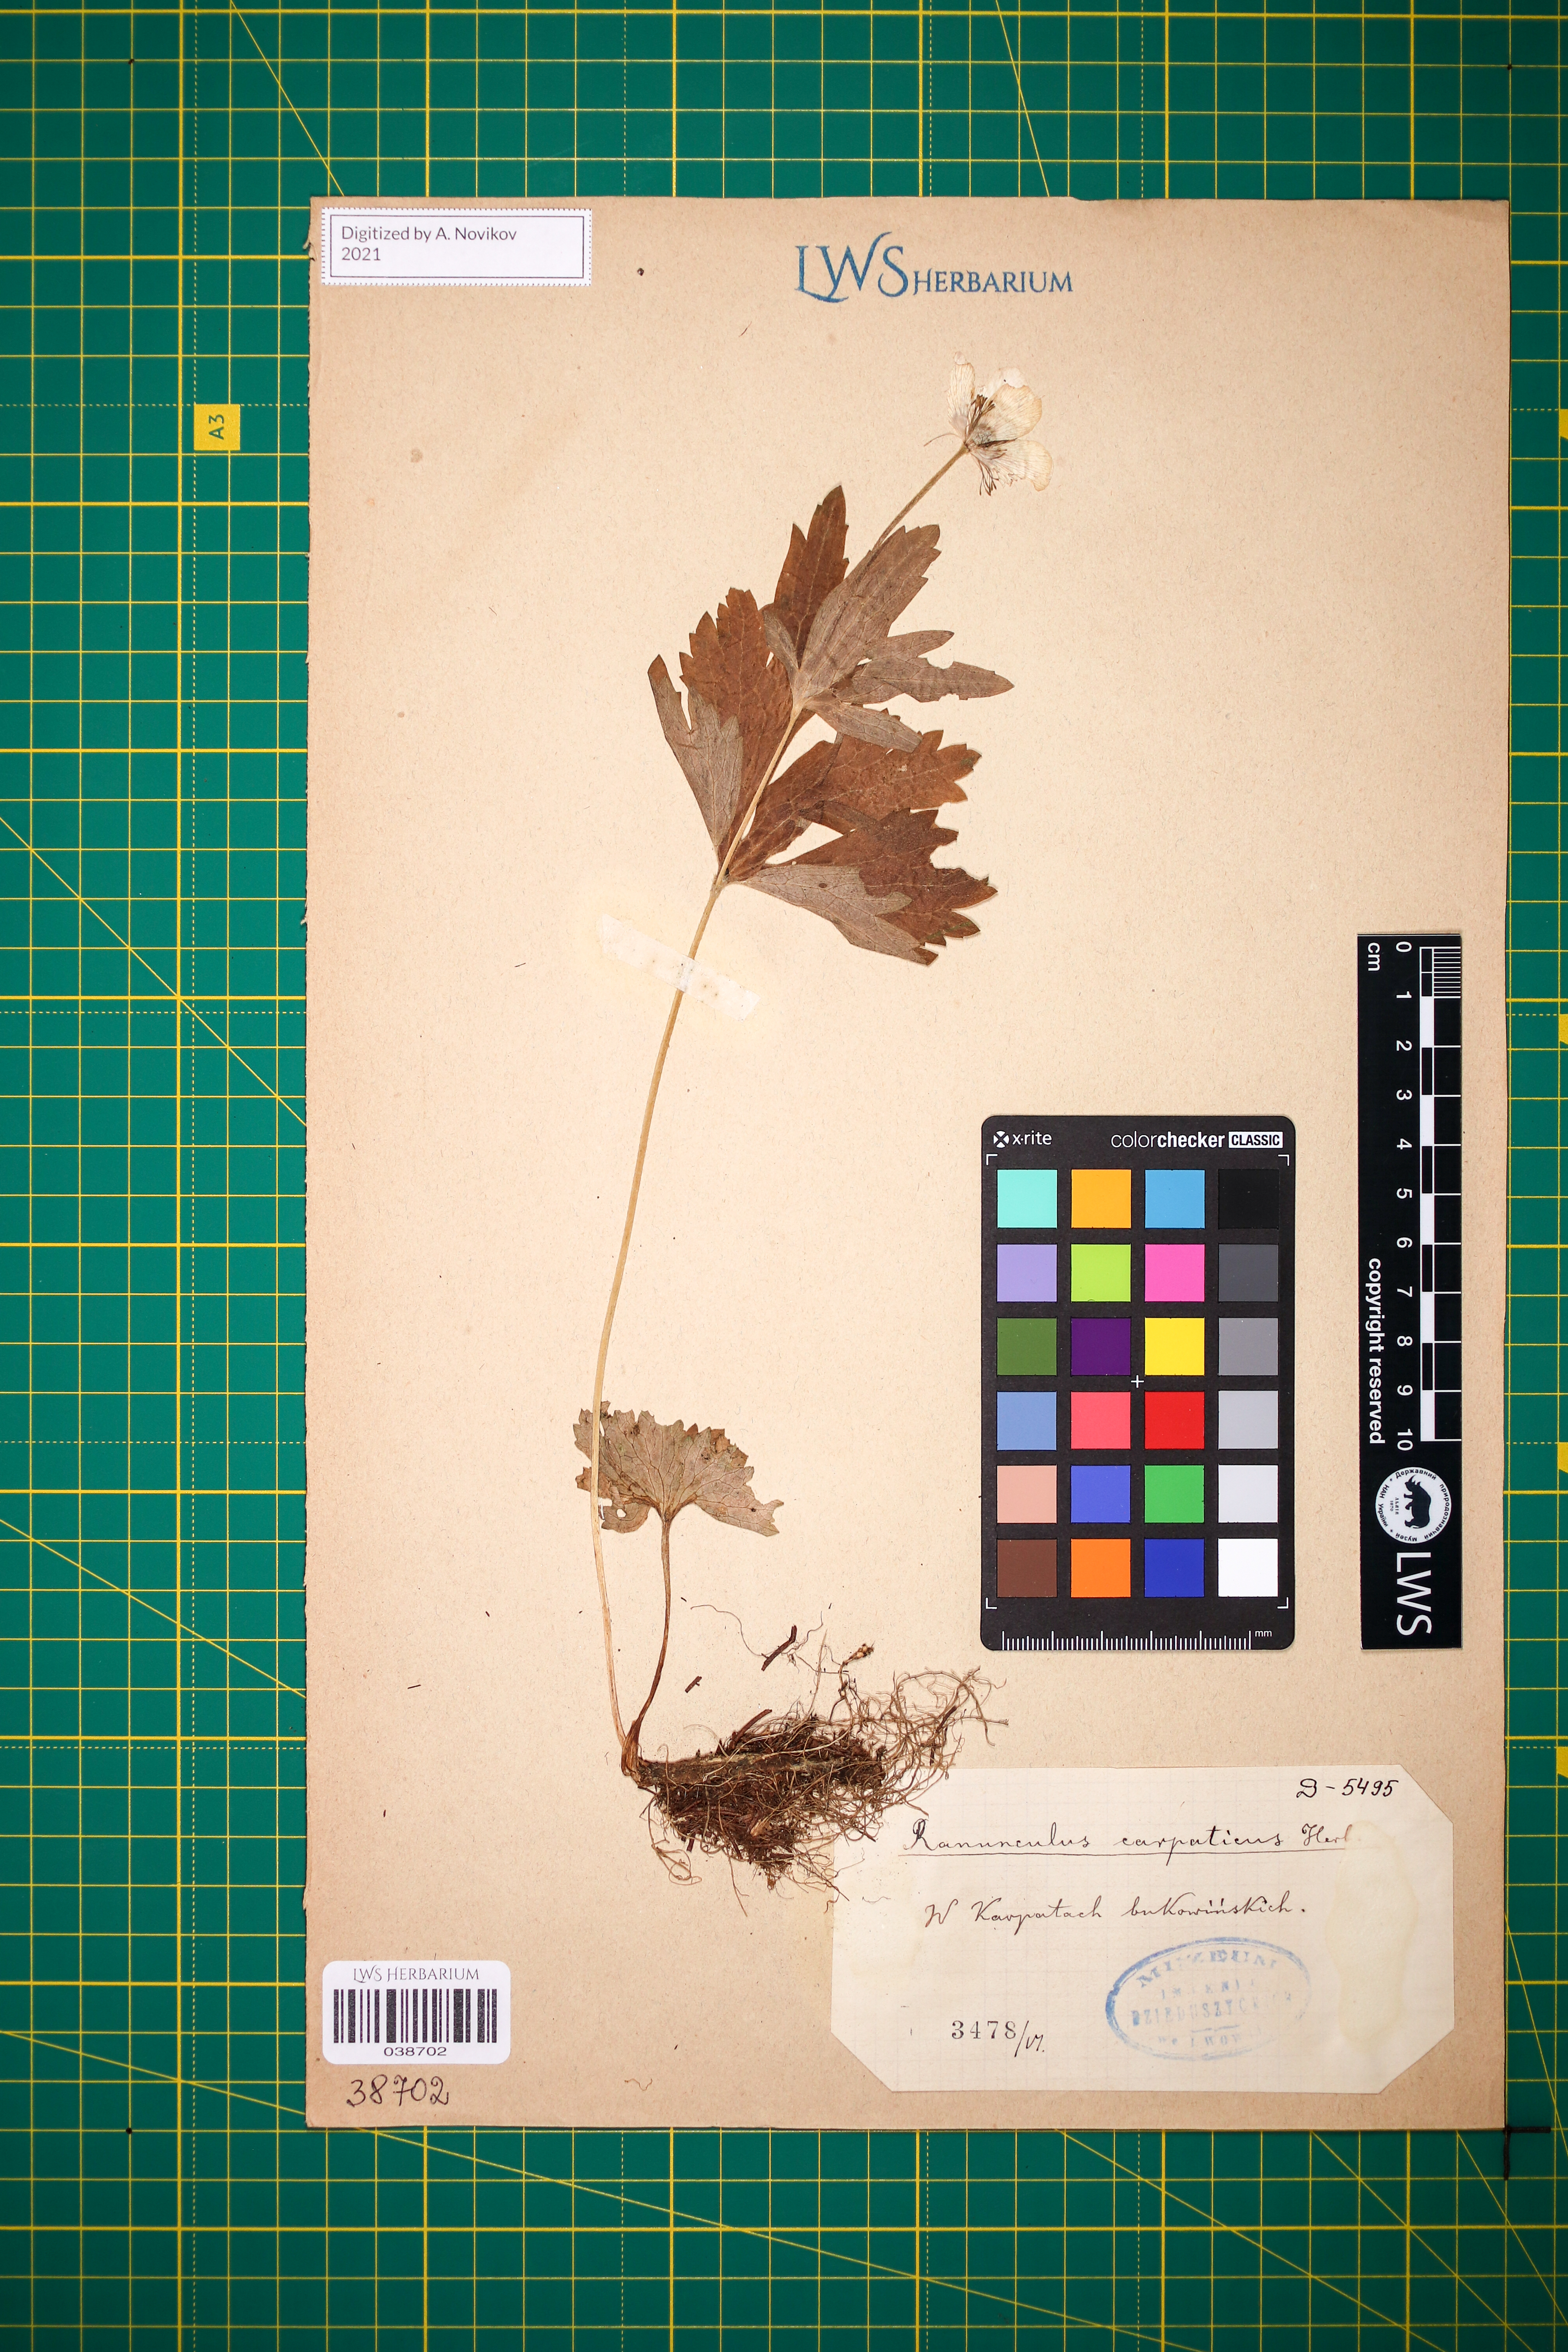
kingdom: Plantae
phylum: Tracheophyta
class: Magnoliopsida
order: Ranunculales
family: Ranunculaceae
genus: Ranunculus
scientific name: Ranunculus carpaticus
